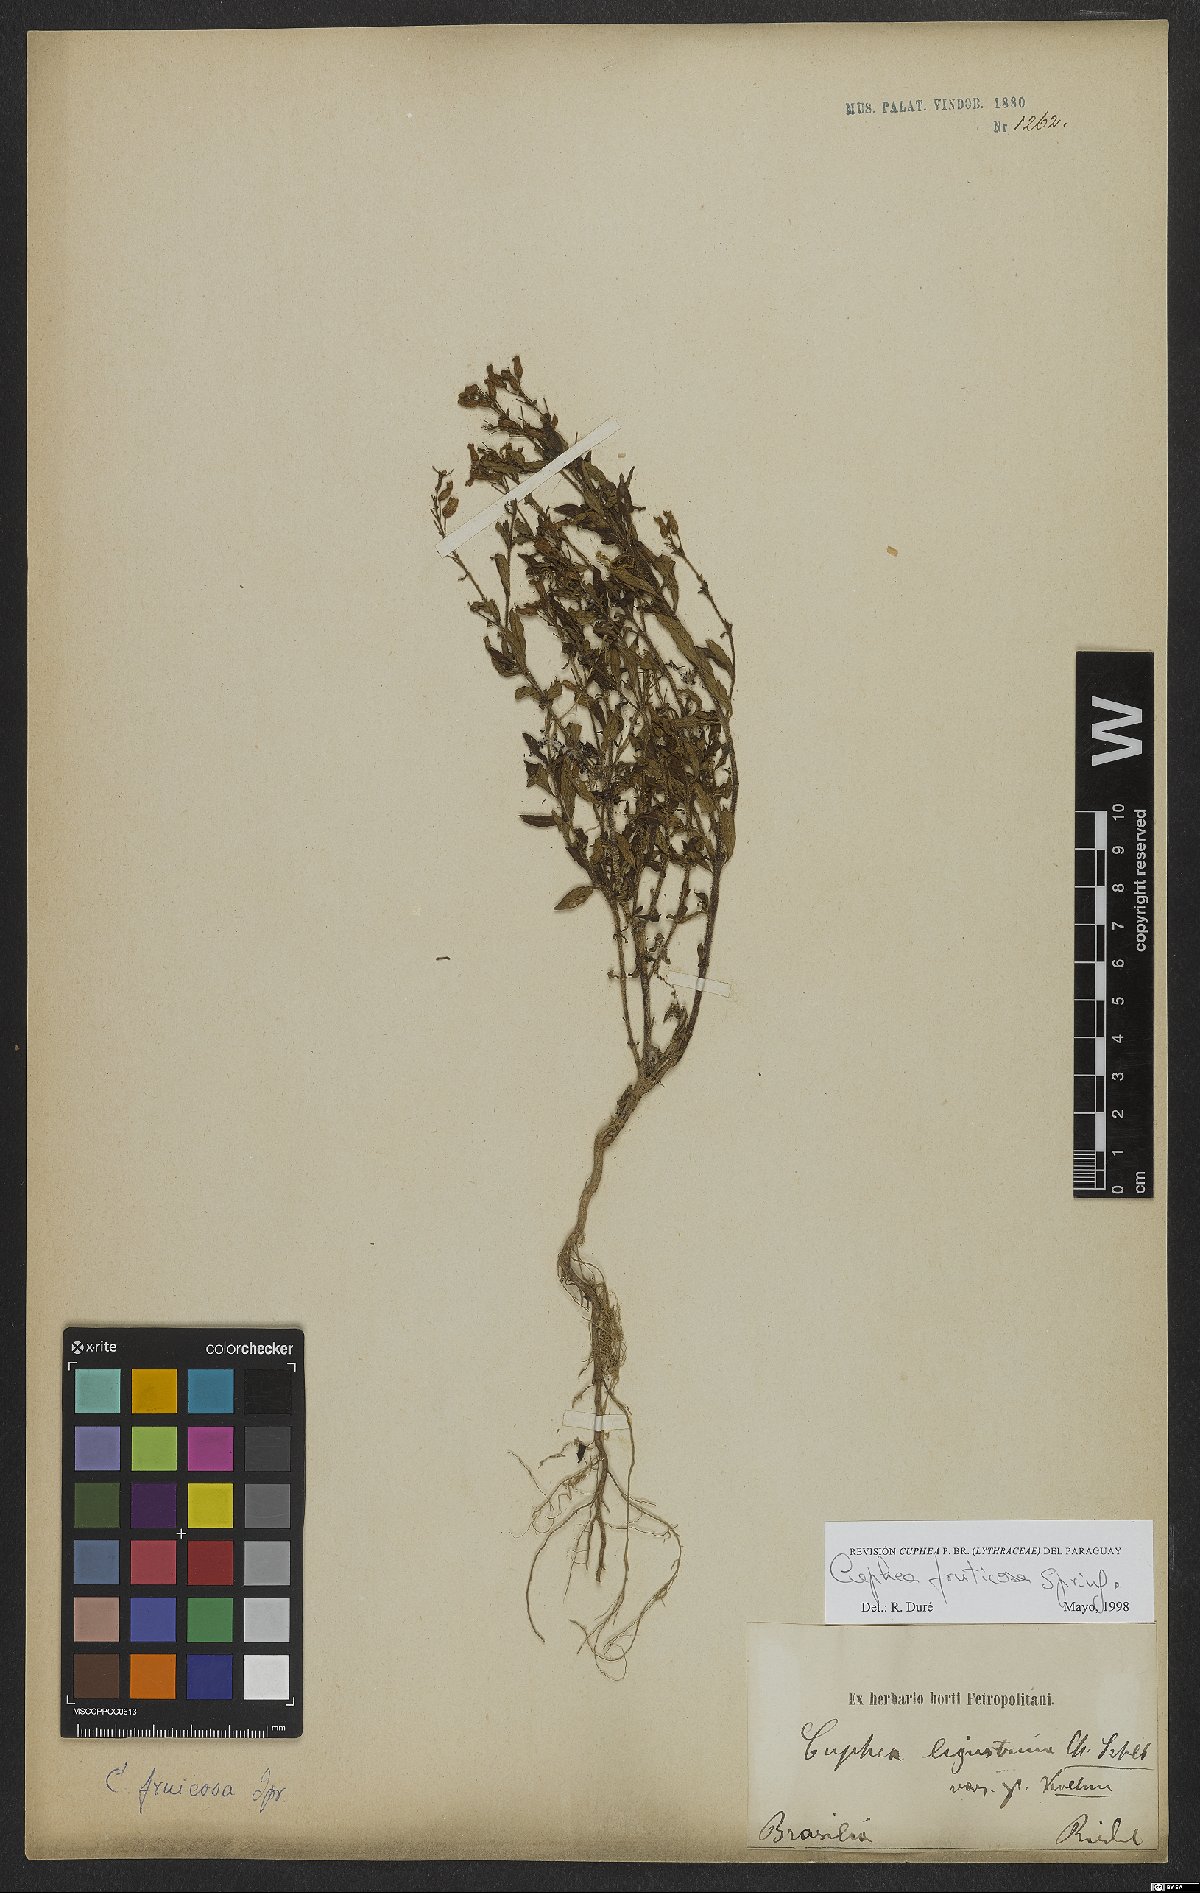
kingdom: Plantae
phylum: Tracheophyta
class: Magnoliopsida
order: Myrtales
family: Lythraceae
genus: Cuphea
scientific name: Cuphea fruticosa
